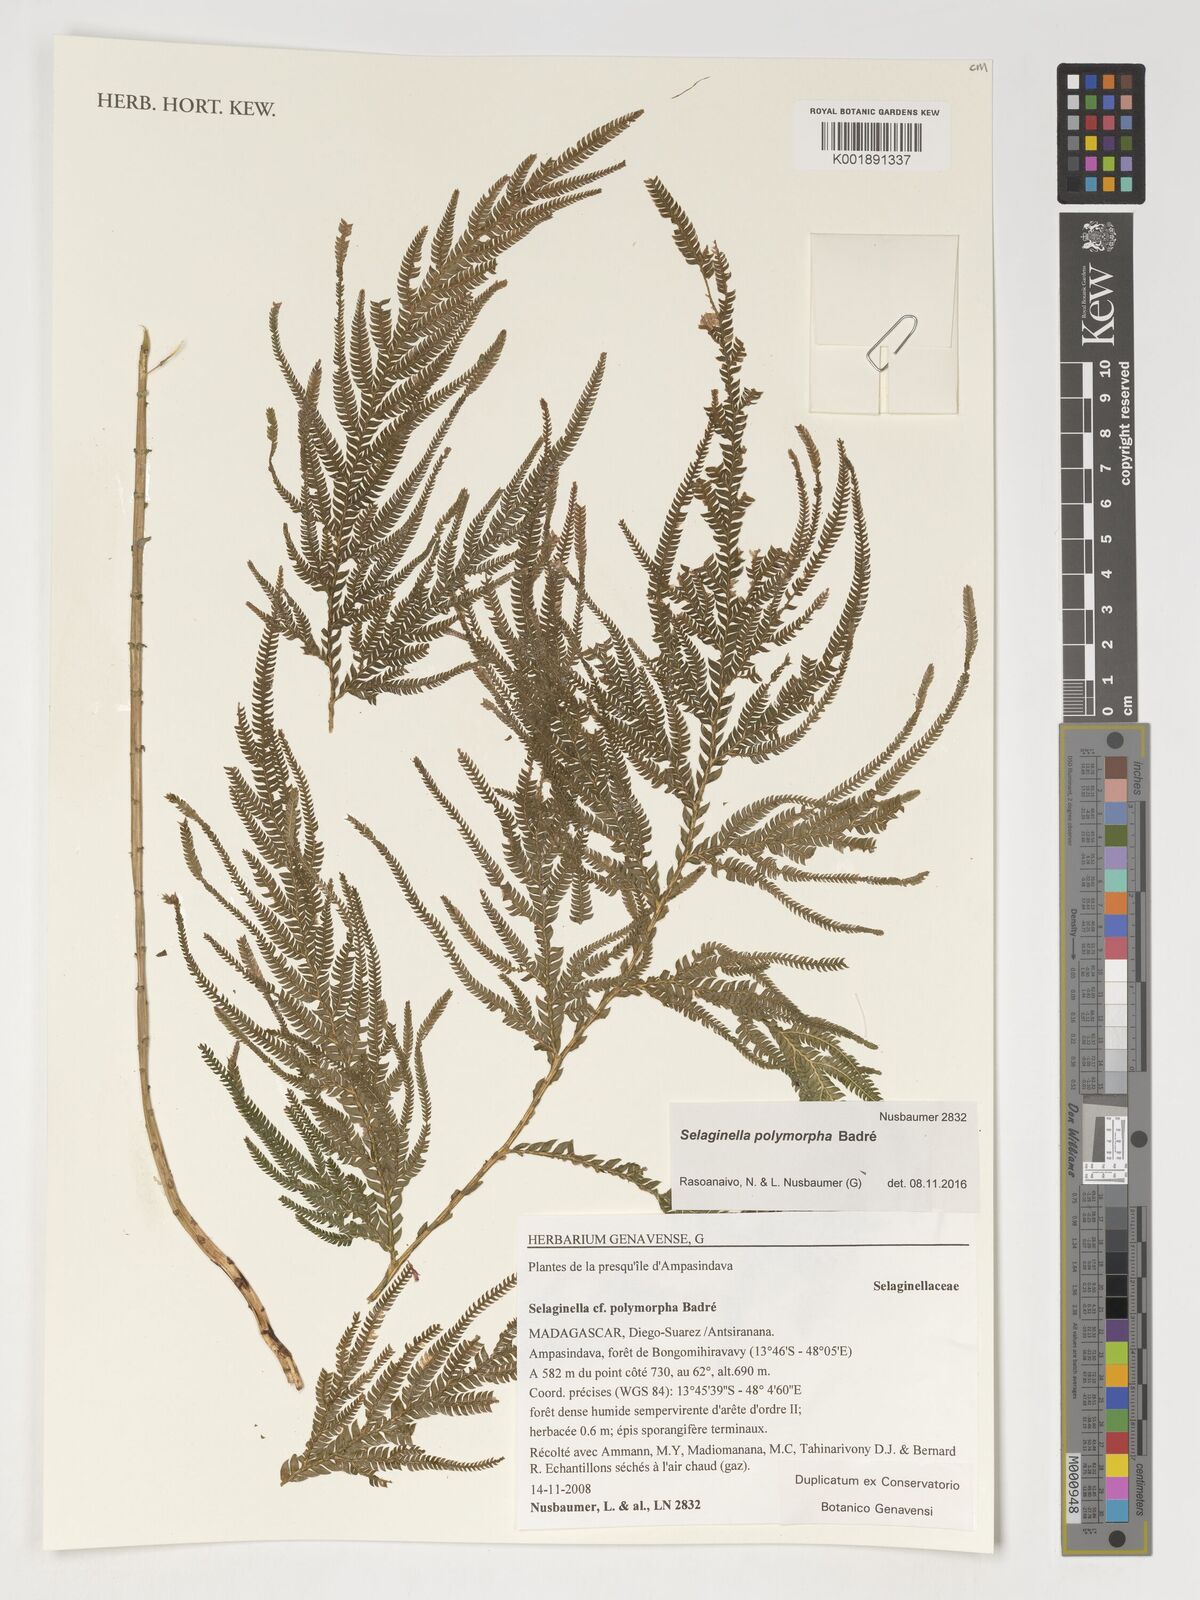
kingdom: Plantae
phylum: Tracheophyta
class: Lycopodiopsida
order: Selaginellales
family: Selaginellaceae
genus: Selaginella
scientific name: Selaginella polymorpha
